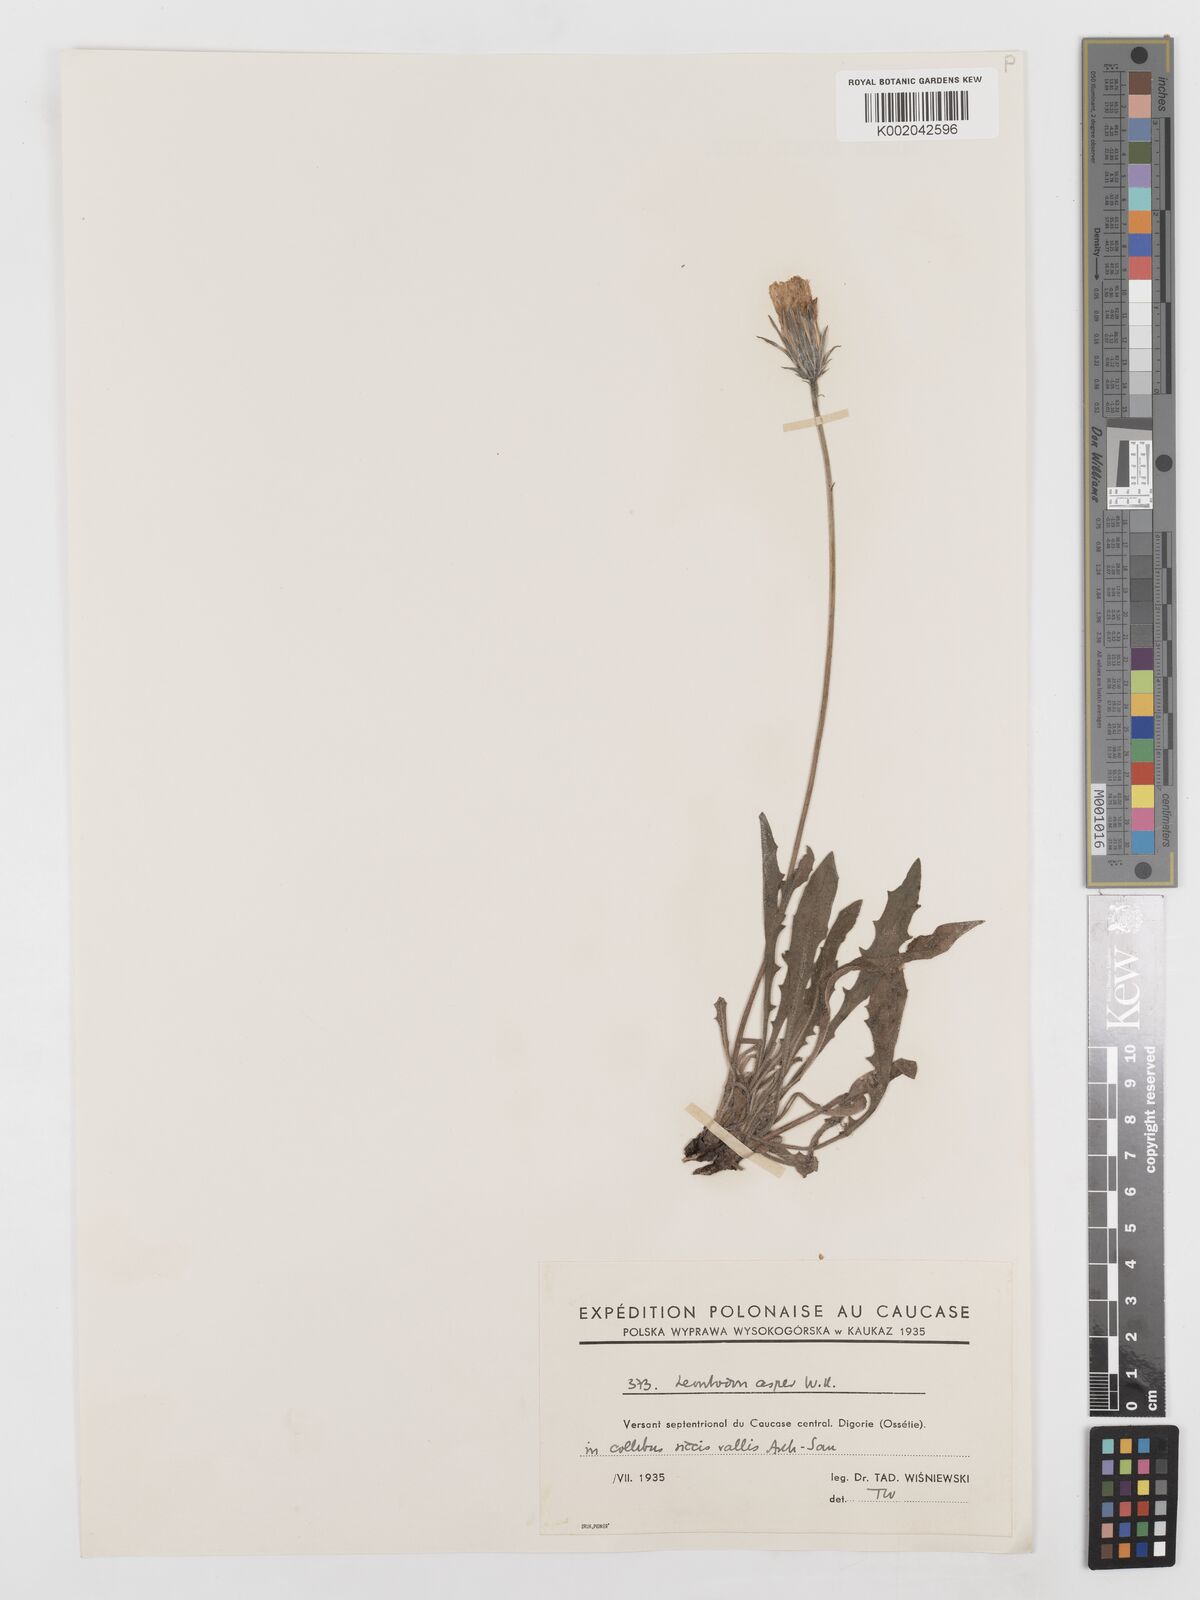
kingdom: Plantae
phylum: Tracheophyta
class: Magnoliopsida
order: Asterales
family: Asteraceae
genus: Leontodon
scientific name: Leontodon
